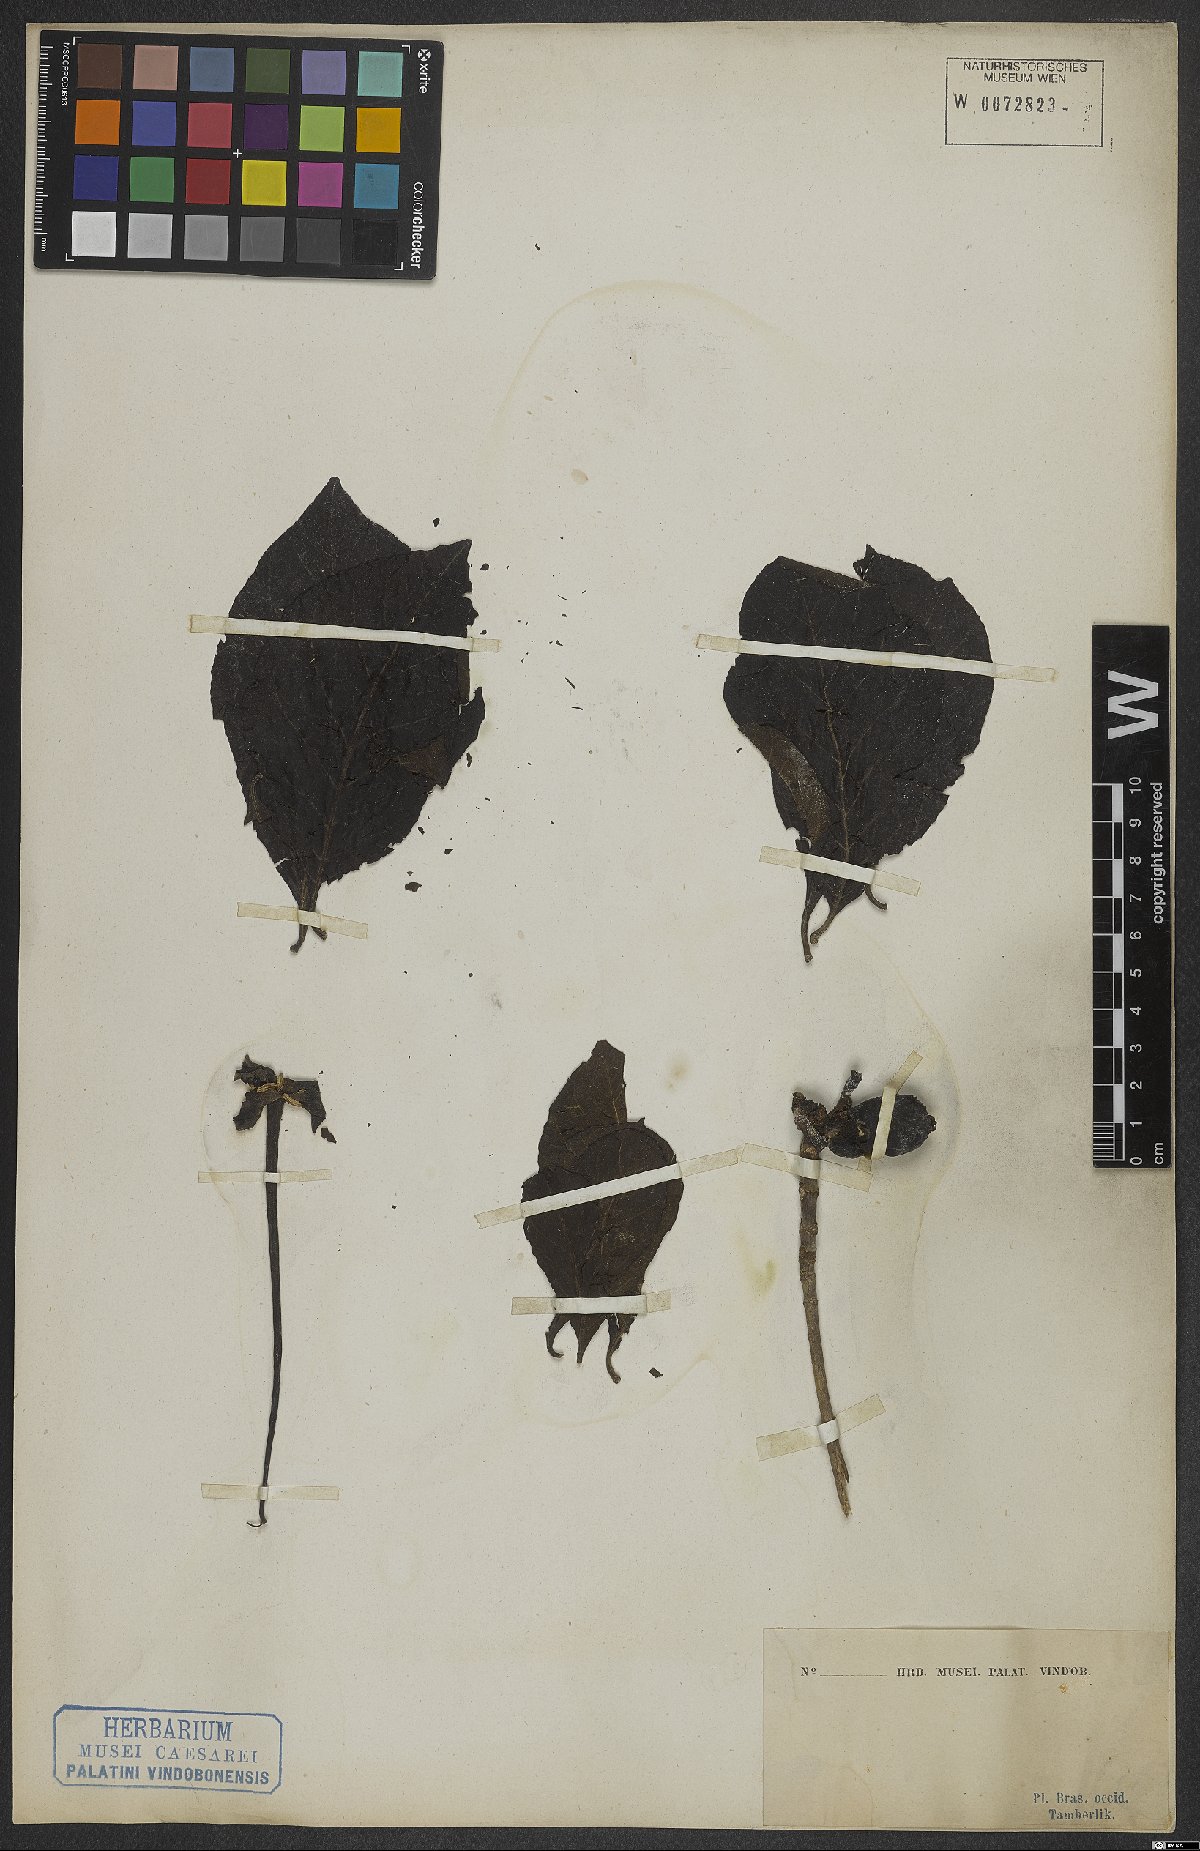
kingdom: Plantae
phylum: Tracheophyta
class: Magnoliopsida
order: Gentianales
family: Rubiaceae
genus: Tocoyena
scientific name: Tocoyena
